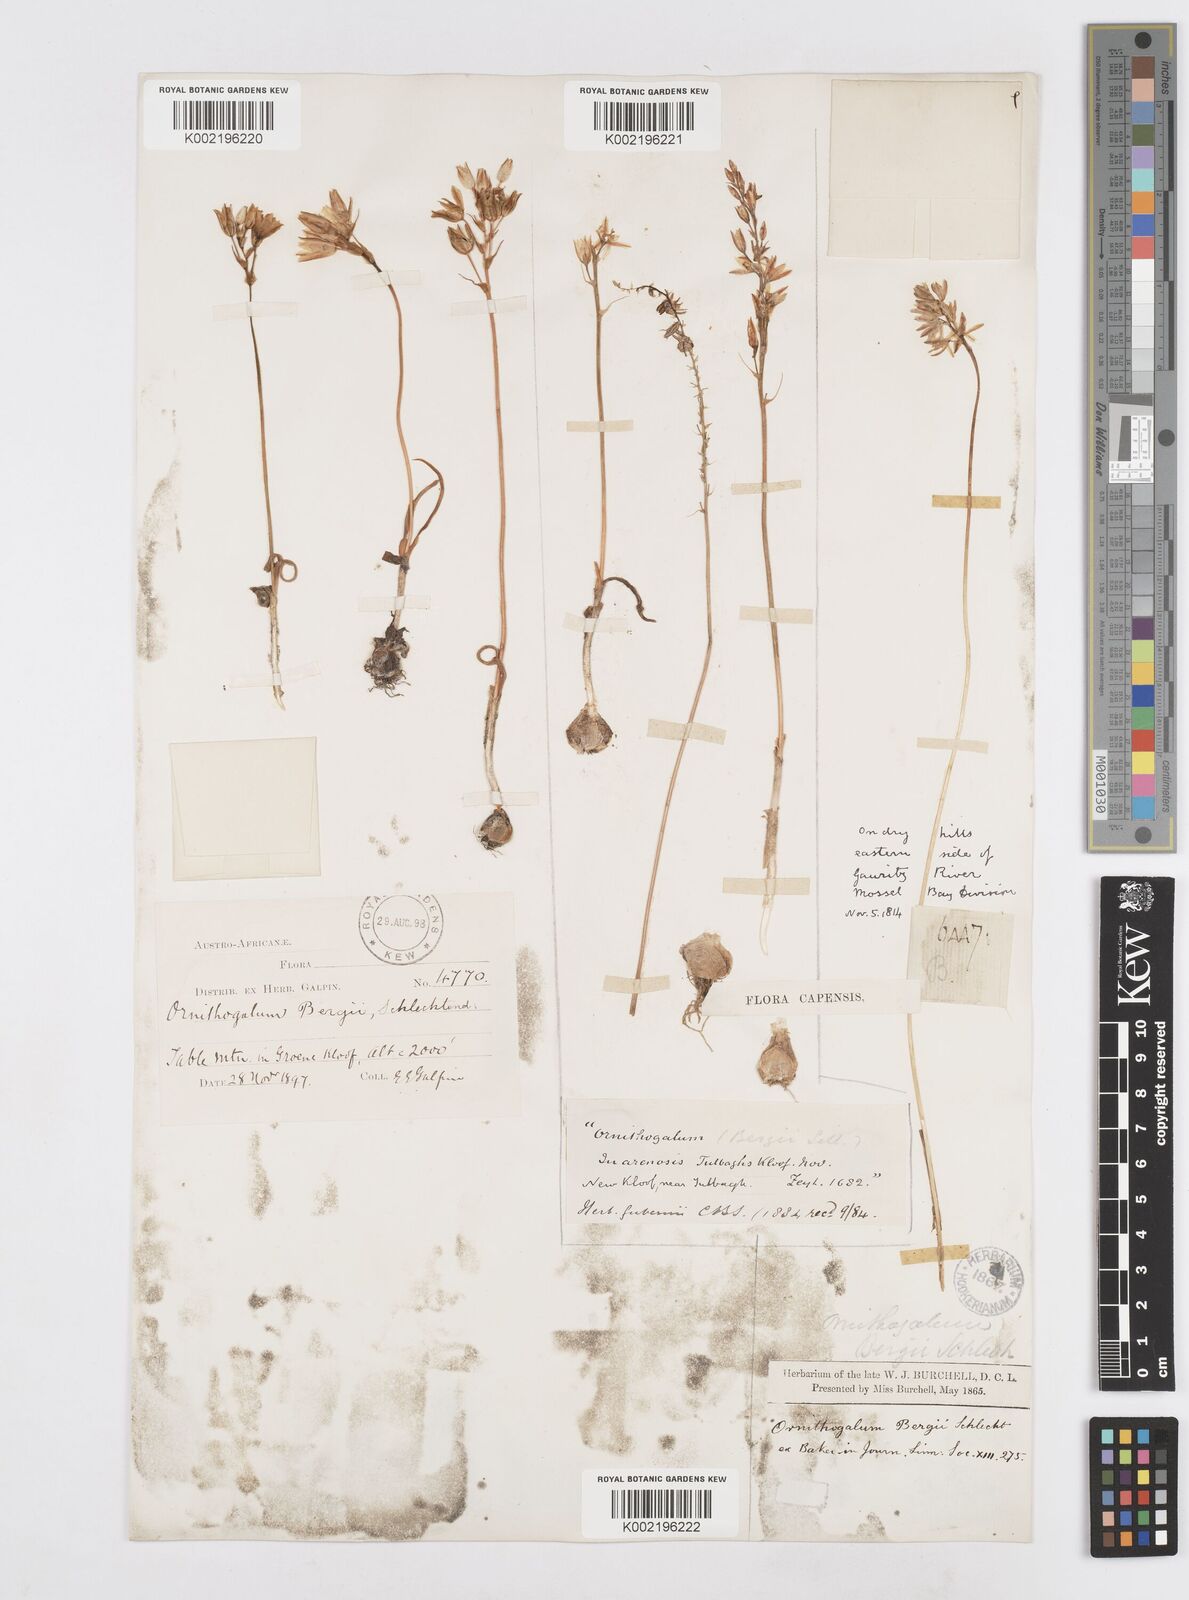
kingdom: Plantae
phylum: Tracheophyta
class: Liliopsida
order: Asparagales
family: Asparagaceae
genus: Ornithogalum
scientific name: Ornithogalum hispidum
